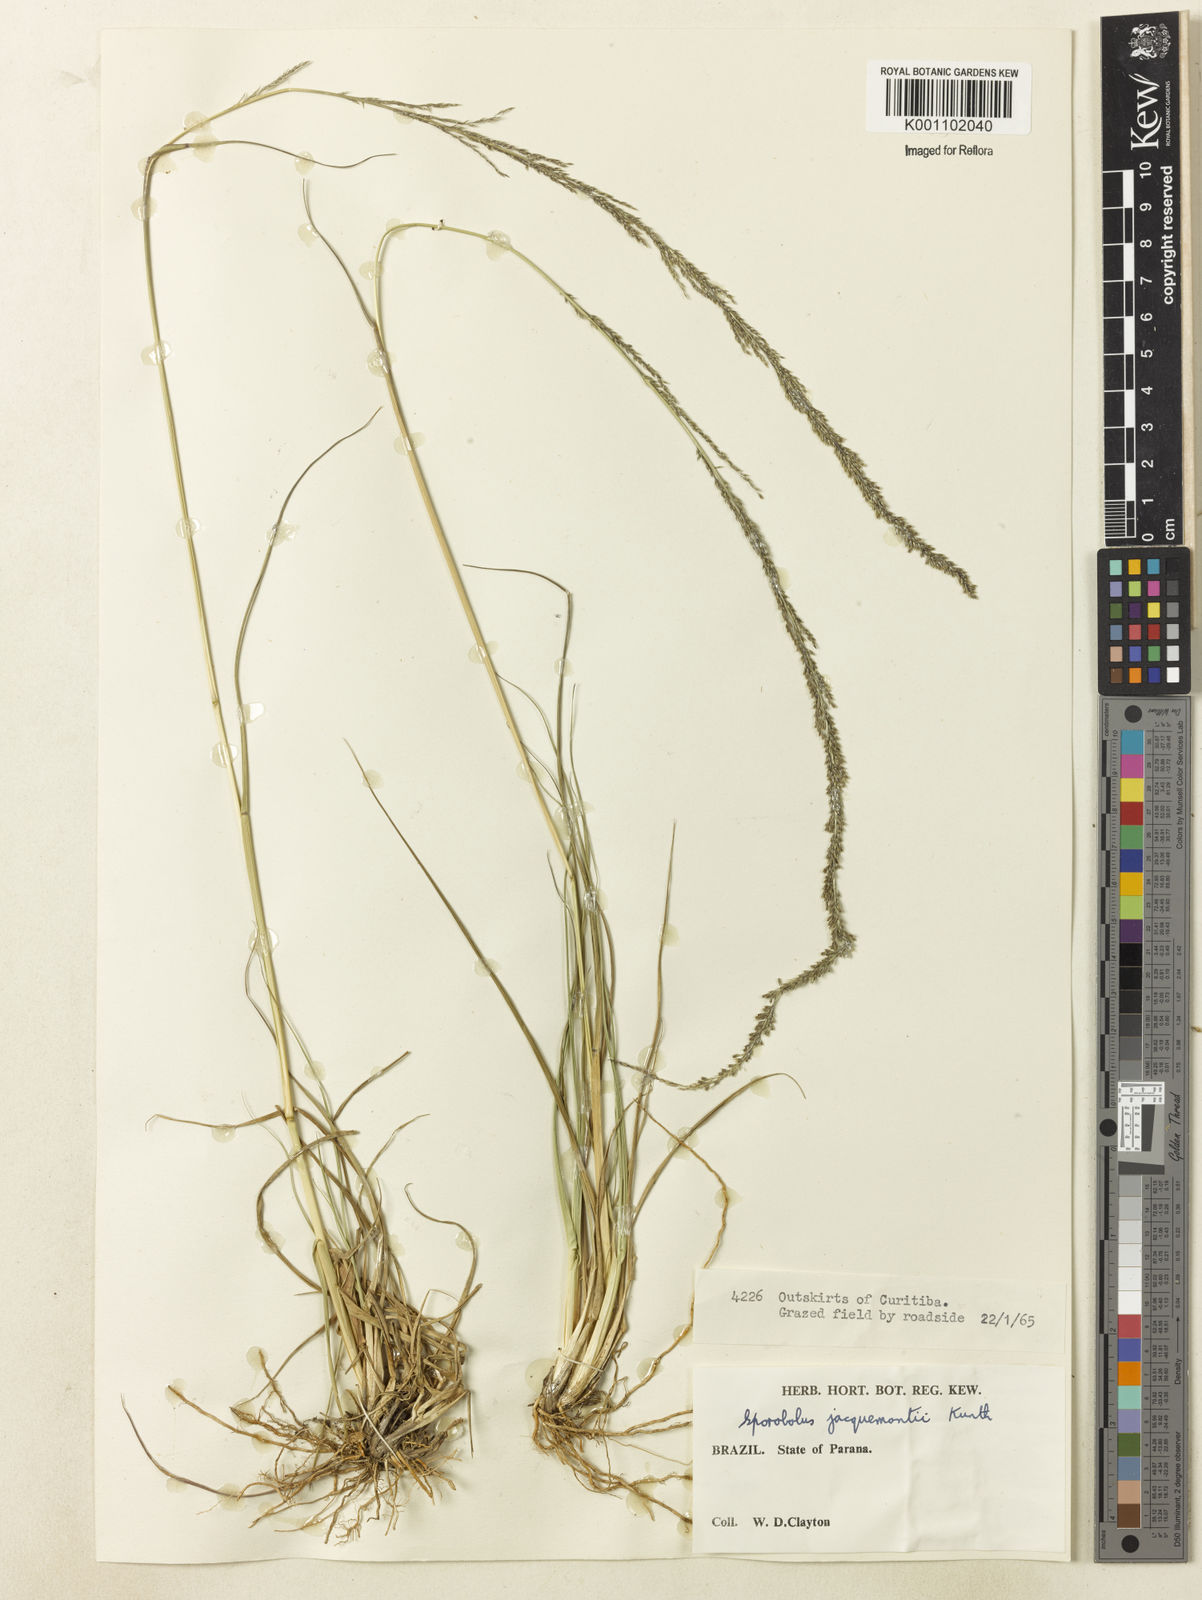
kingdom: Plantae
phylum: Tracheophyta
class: Liliopsida
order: Poales
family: Poaceae
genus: Sporobolus
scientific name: Sporobolus pyramidalis
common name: West indian dropseed
